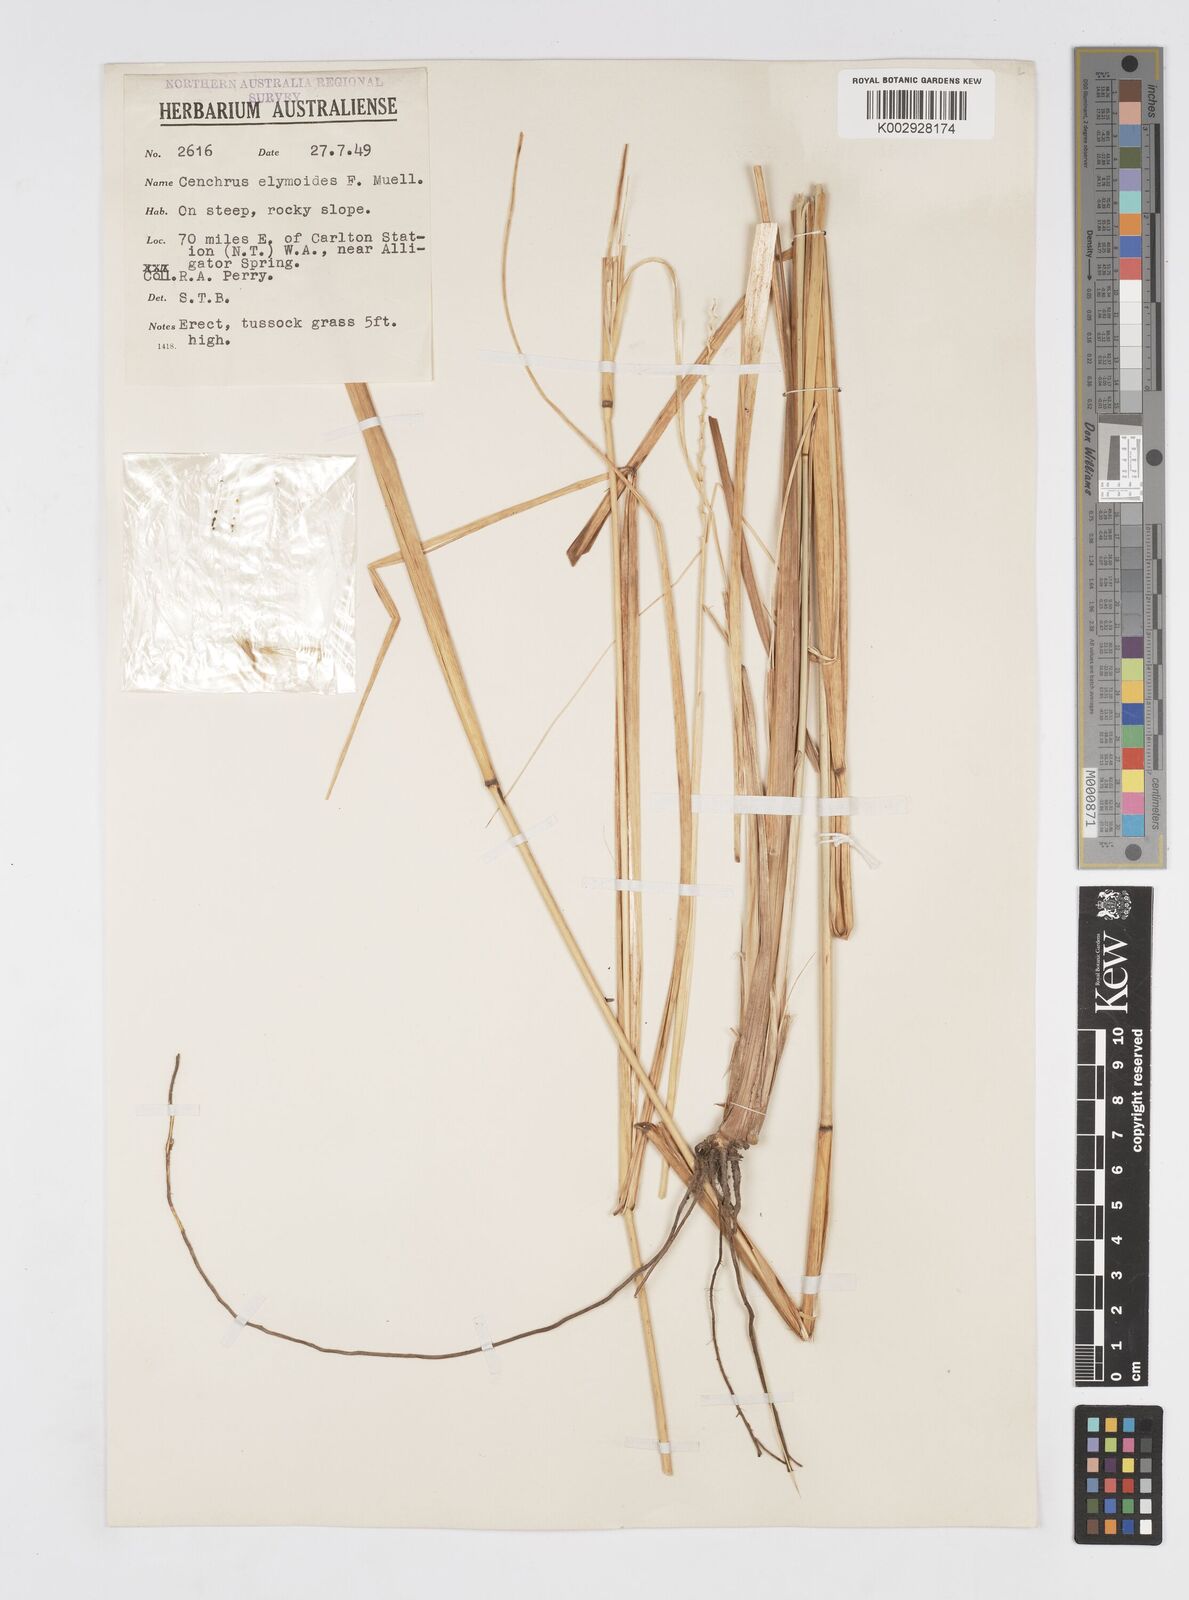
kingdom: Plantae
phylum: Tracheophyta
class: Liliopsida
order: Poales
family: Poaceae
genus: Cenchrus
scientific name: Cenchrus elymoides
